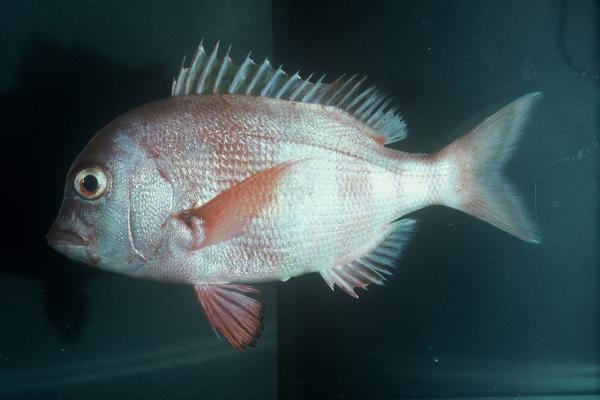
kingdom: Animalia
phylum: Chordata
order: Perciformes
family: Sparidae
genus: Chrysoblephus
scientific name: Chrysoblephus gibbiceps
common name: Red stumpnose
